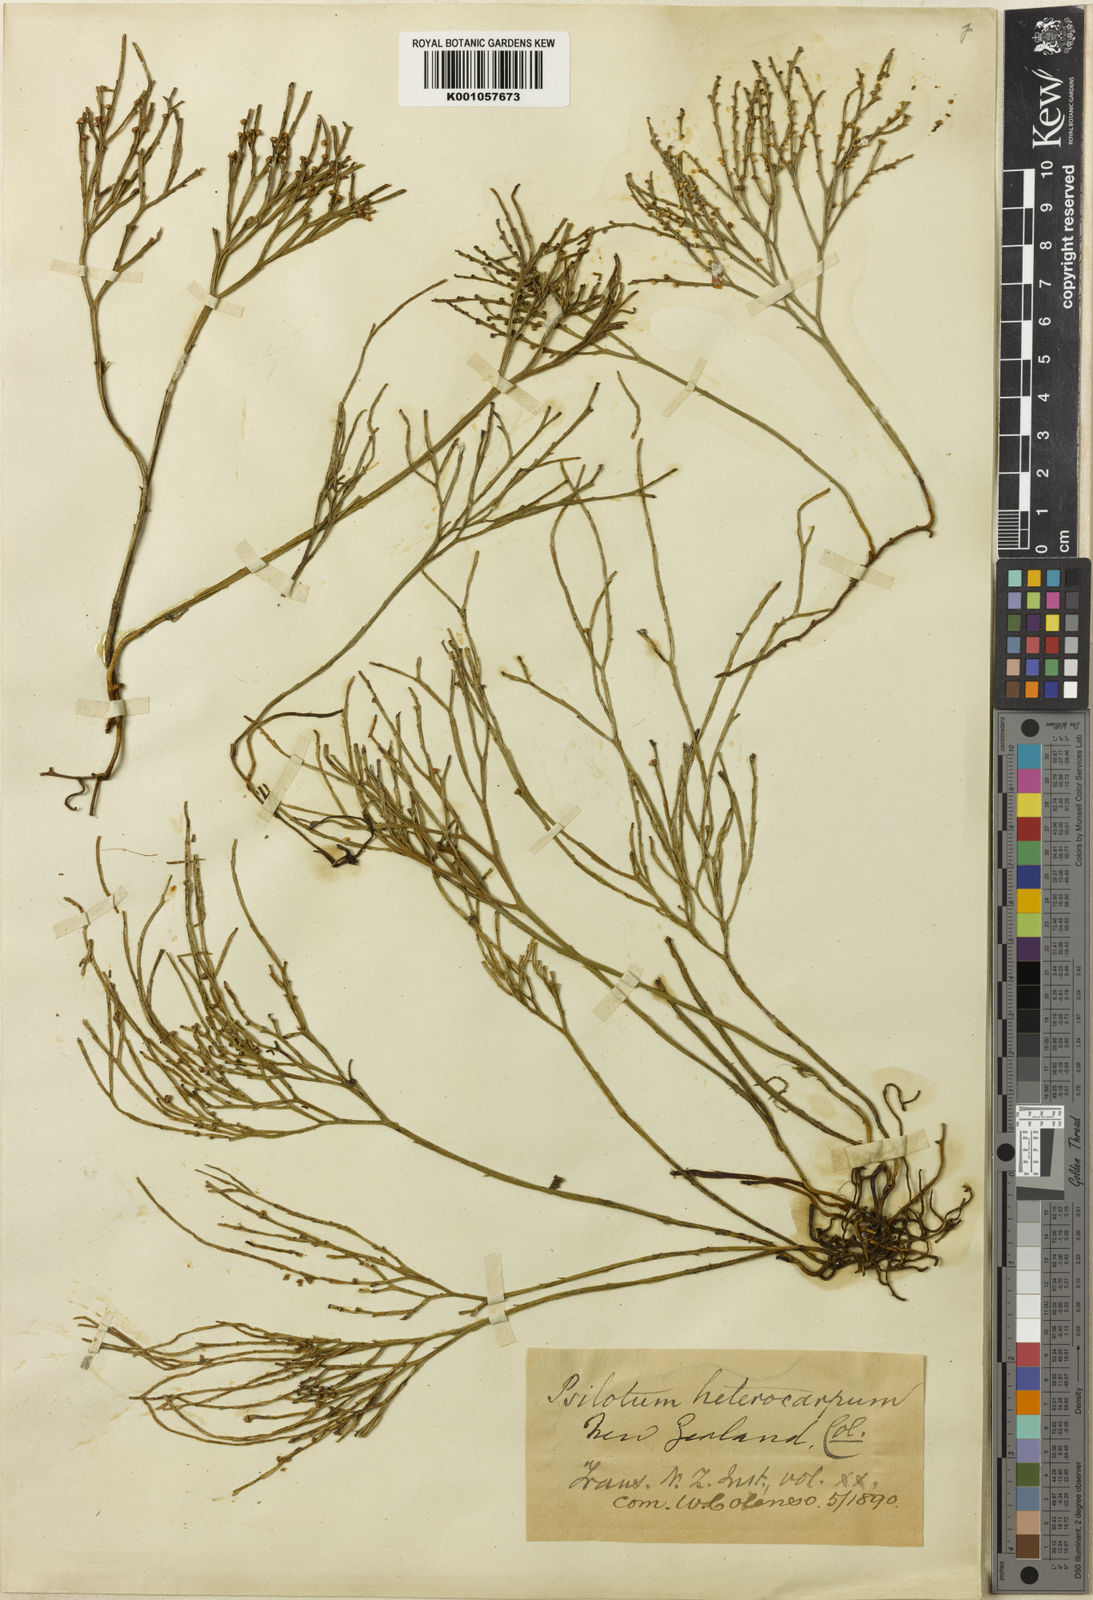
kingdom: Plantae
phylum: Tracheophyta
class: Polypodiopsida
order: Psilotales
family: Psilotaceae
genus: Psilotum
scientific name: Psilotum nudum
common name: Skeleton fork fern
